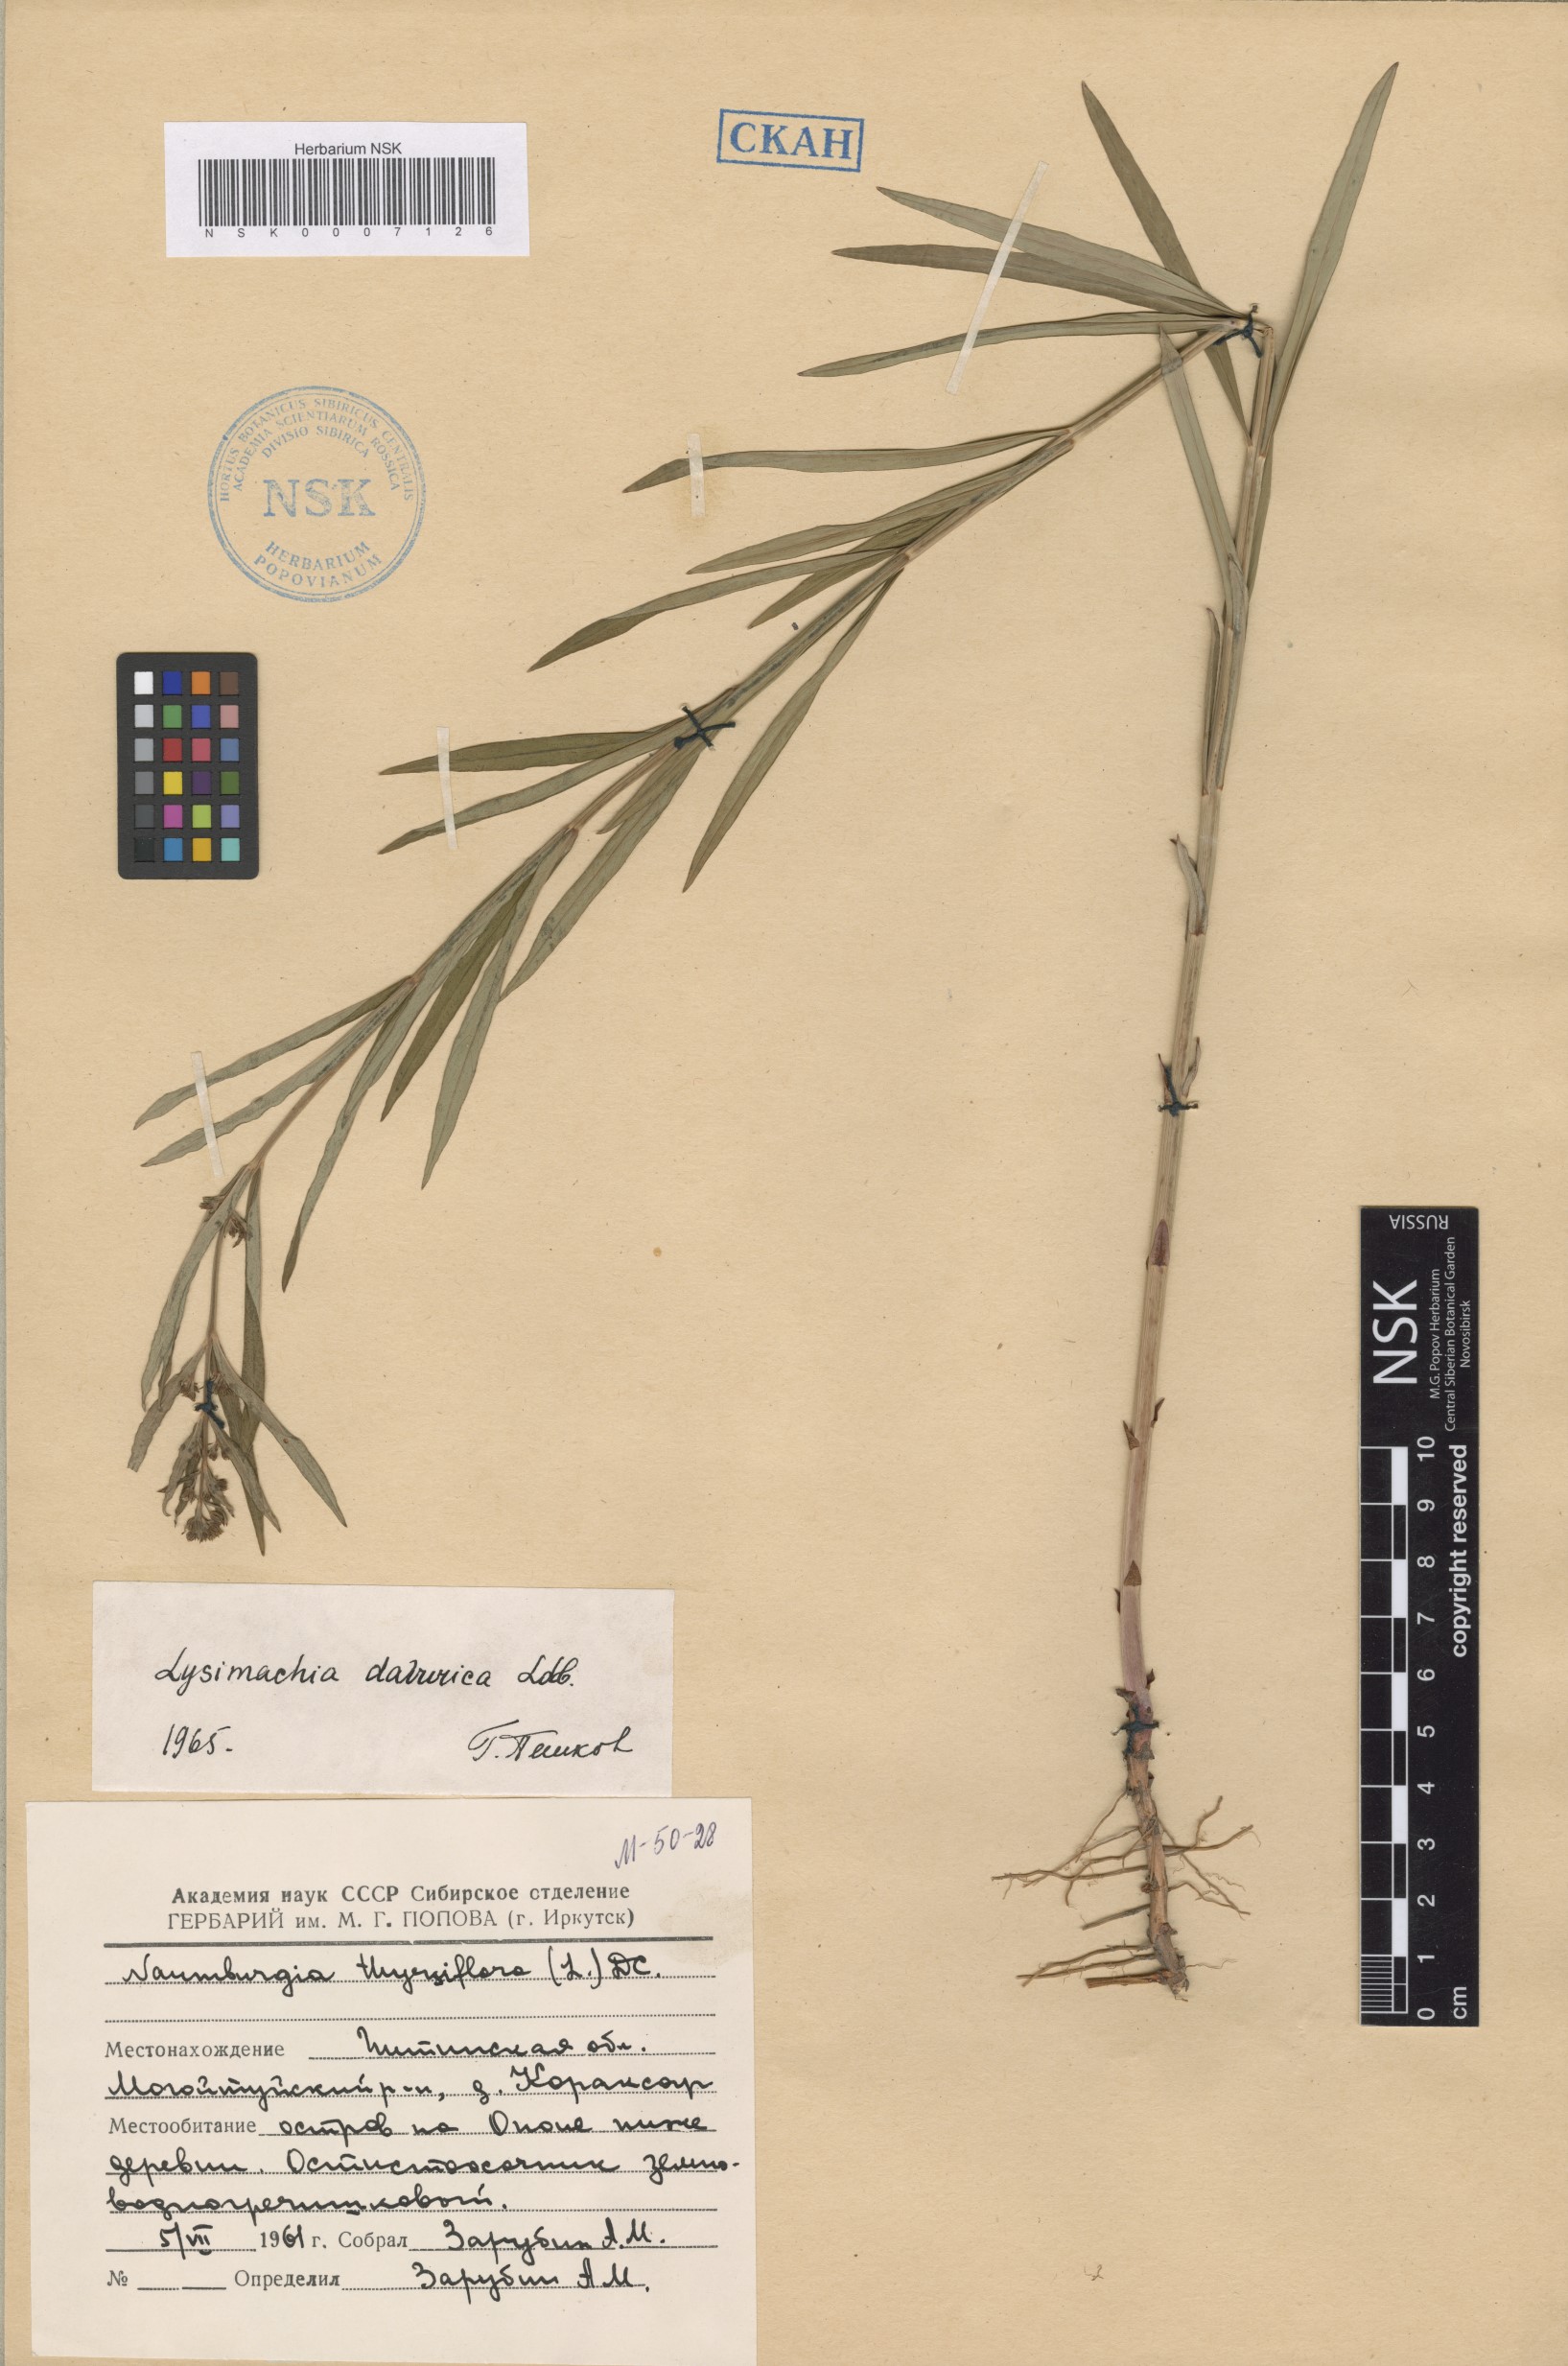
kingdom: Plantae
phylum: Tracheophyta
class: Magnoliopsida
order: Ericales
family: Primulaceae
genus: Lysimachia
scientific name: Lysimachia davurica
